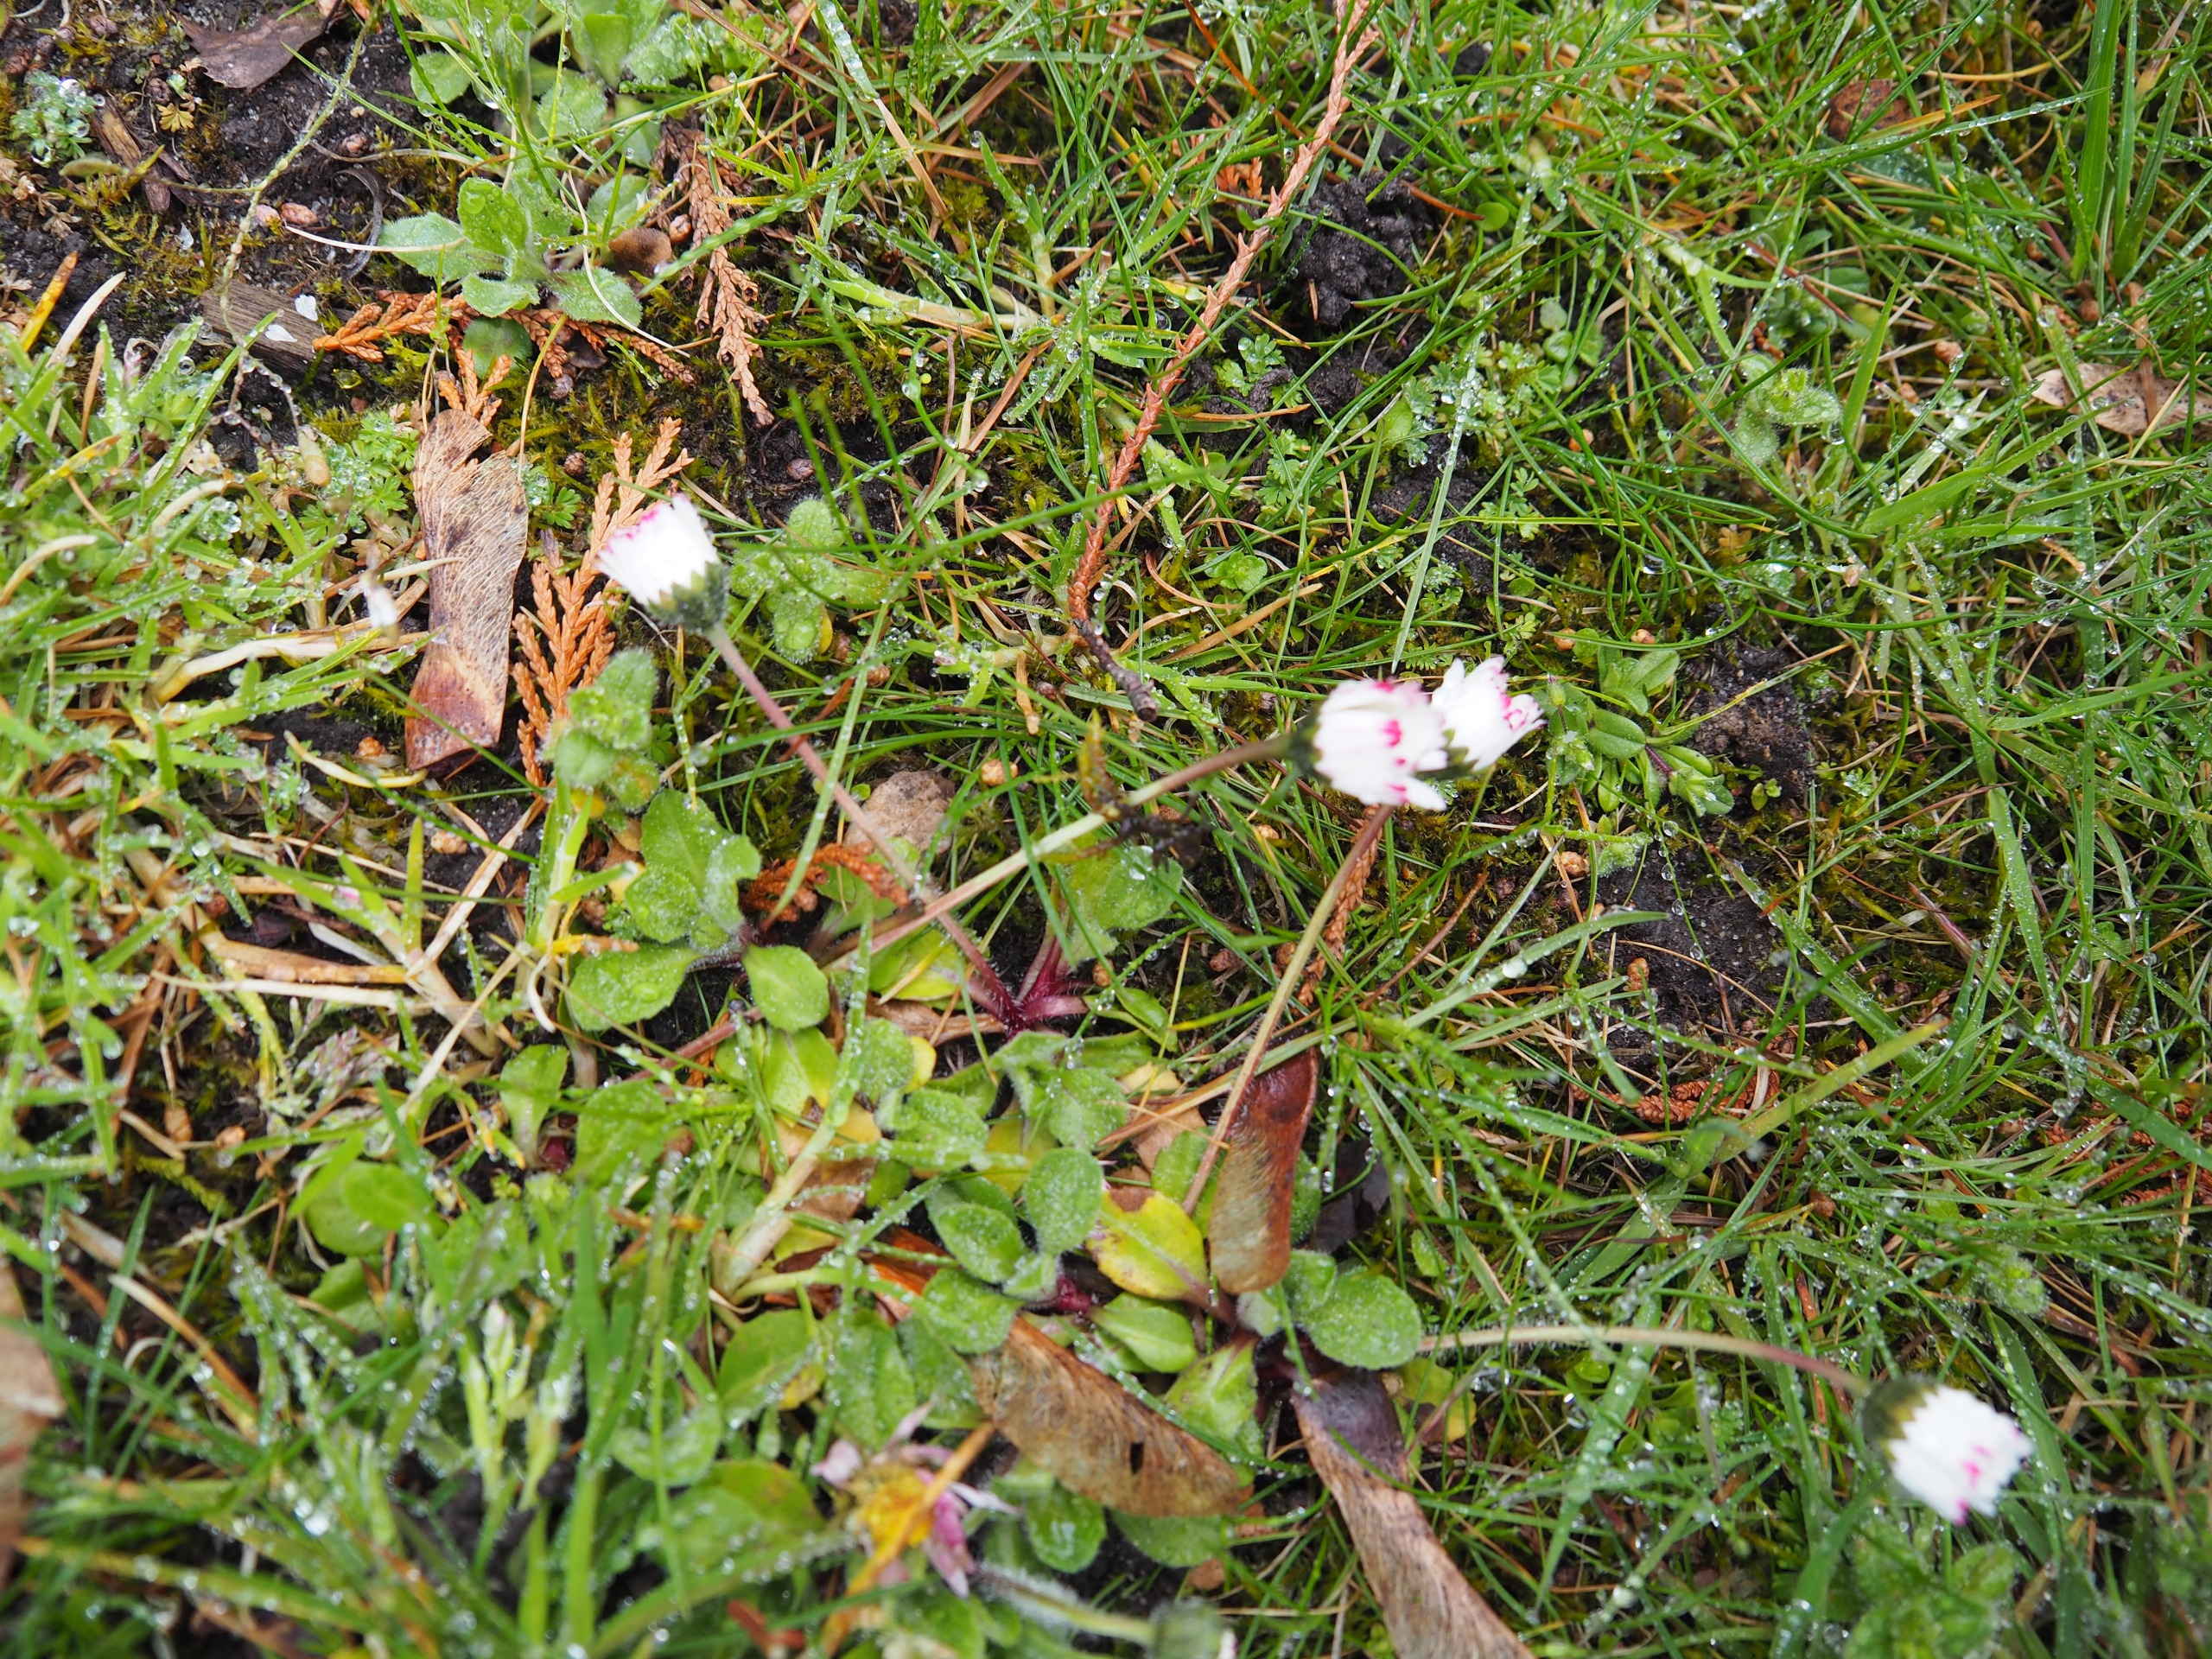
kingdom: Plantae
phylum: Tracheophyta
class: Magnoliopsida
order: Asterales
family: Asteraceae
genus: Bellis
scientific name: Bellis perennis
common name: Tusindfryd
